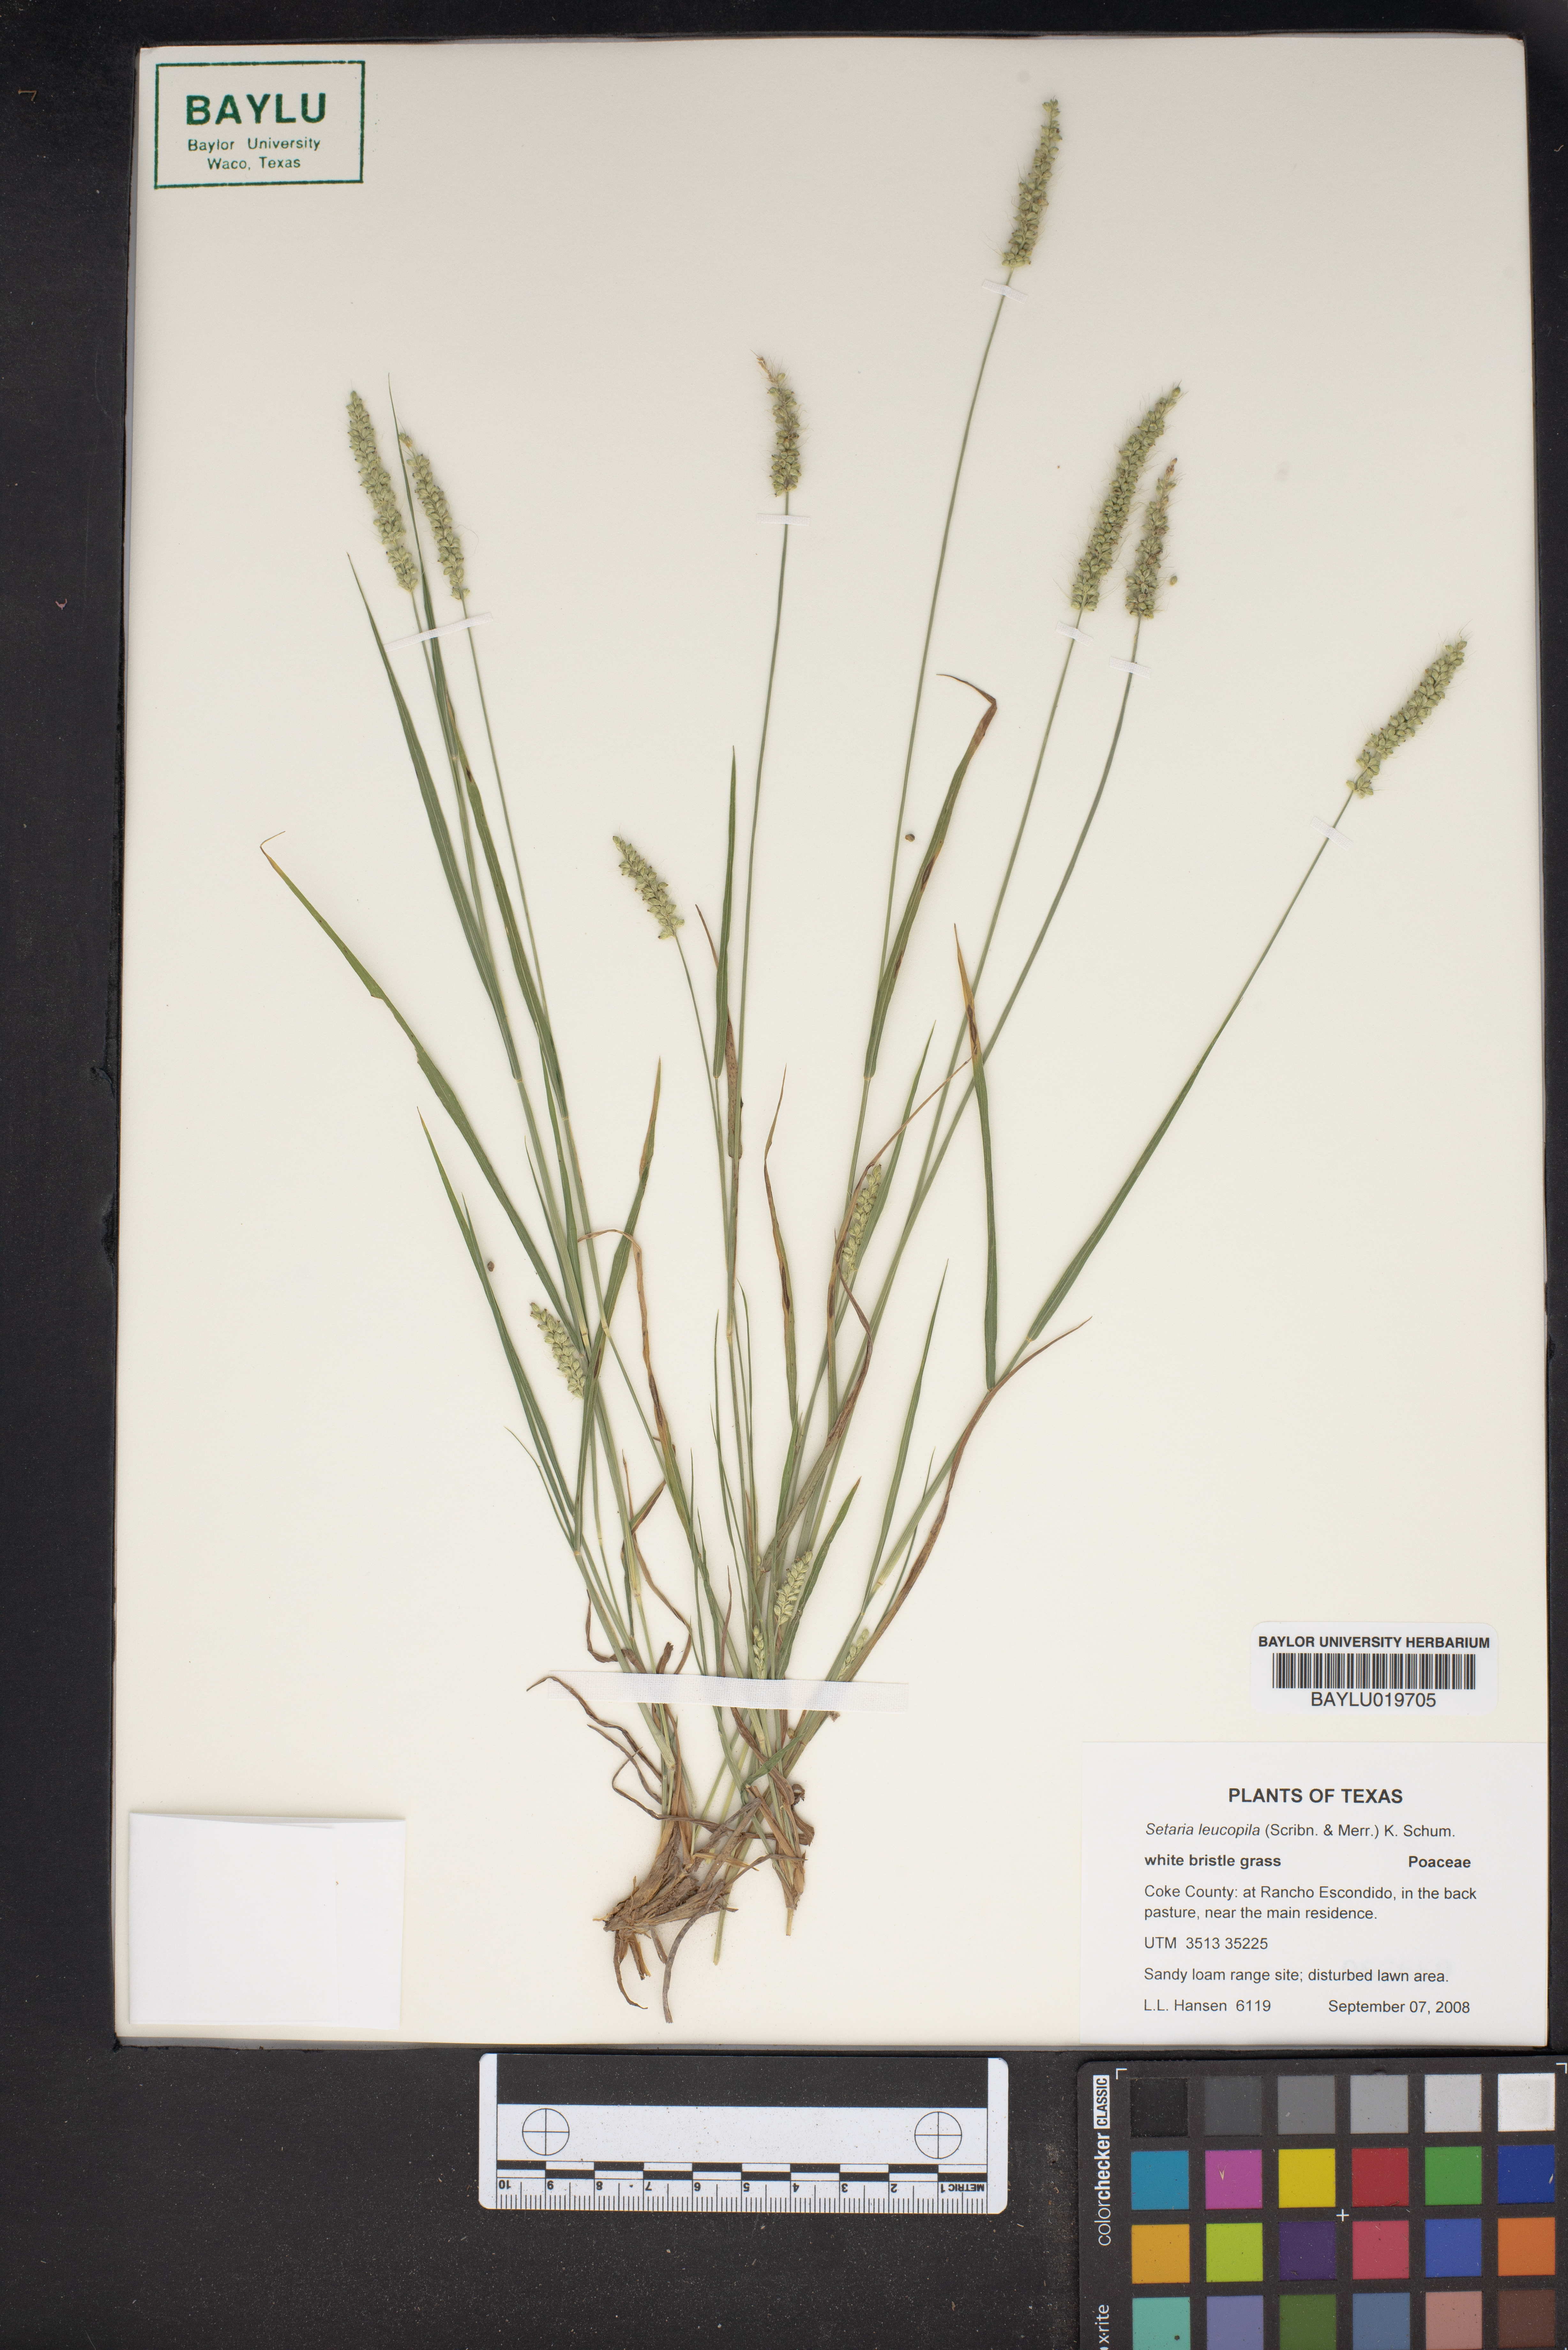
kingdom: Plantae
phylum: Tracheophyta
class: Liliopsida
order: Poales
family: Poaceae
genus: Setaria
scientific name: Setaria leucopila
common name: Plains bristle grass
